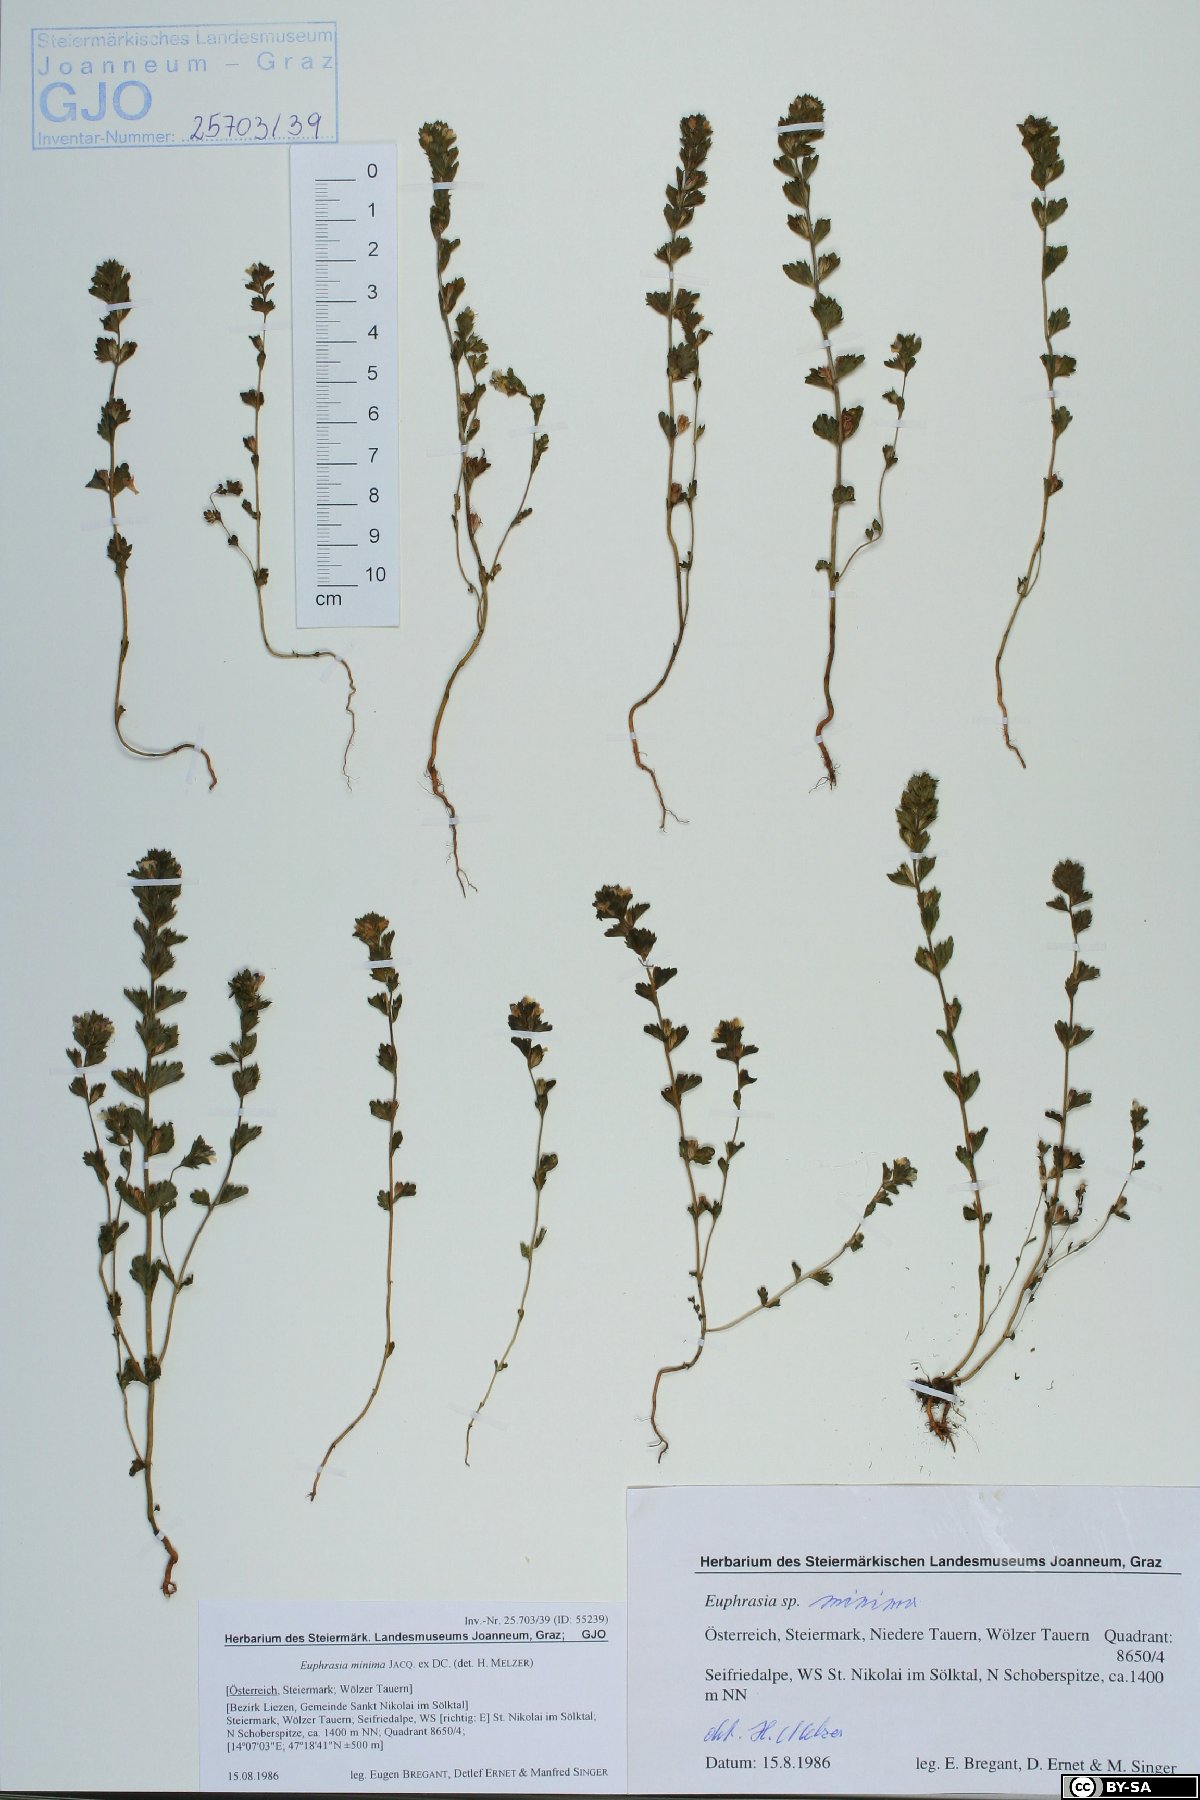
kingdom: Plantae
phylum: Tracheophyta
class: Magnoliopsida
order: Lamiales
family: Orobanchaceae
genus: Euphrasia
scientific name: Euphrasia minima
